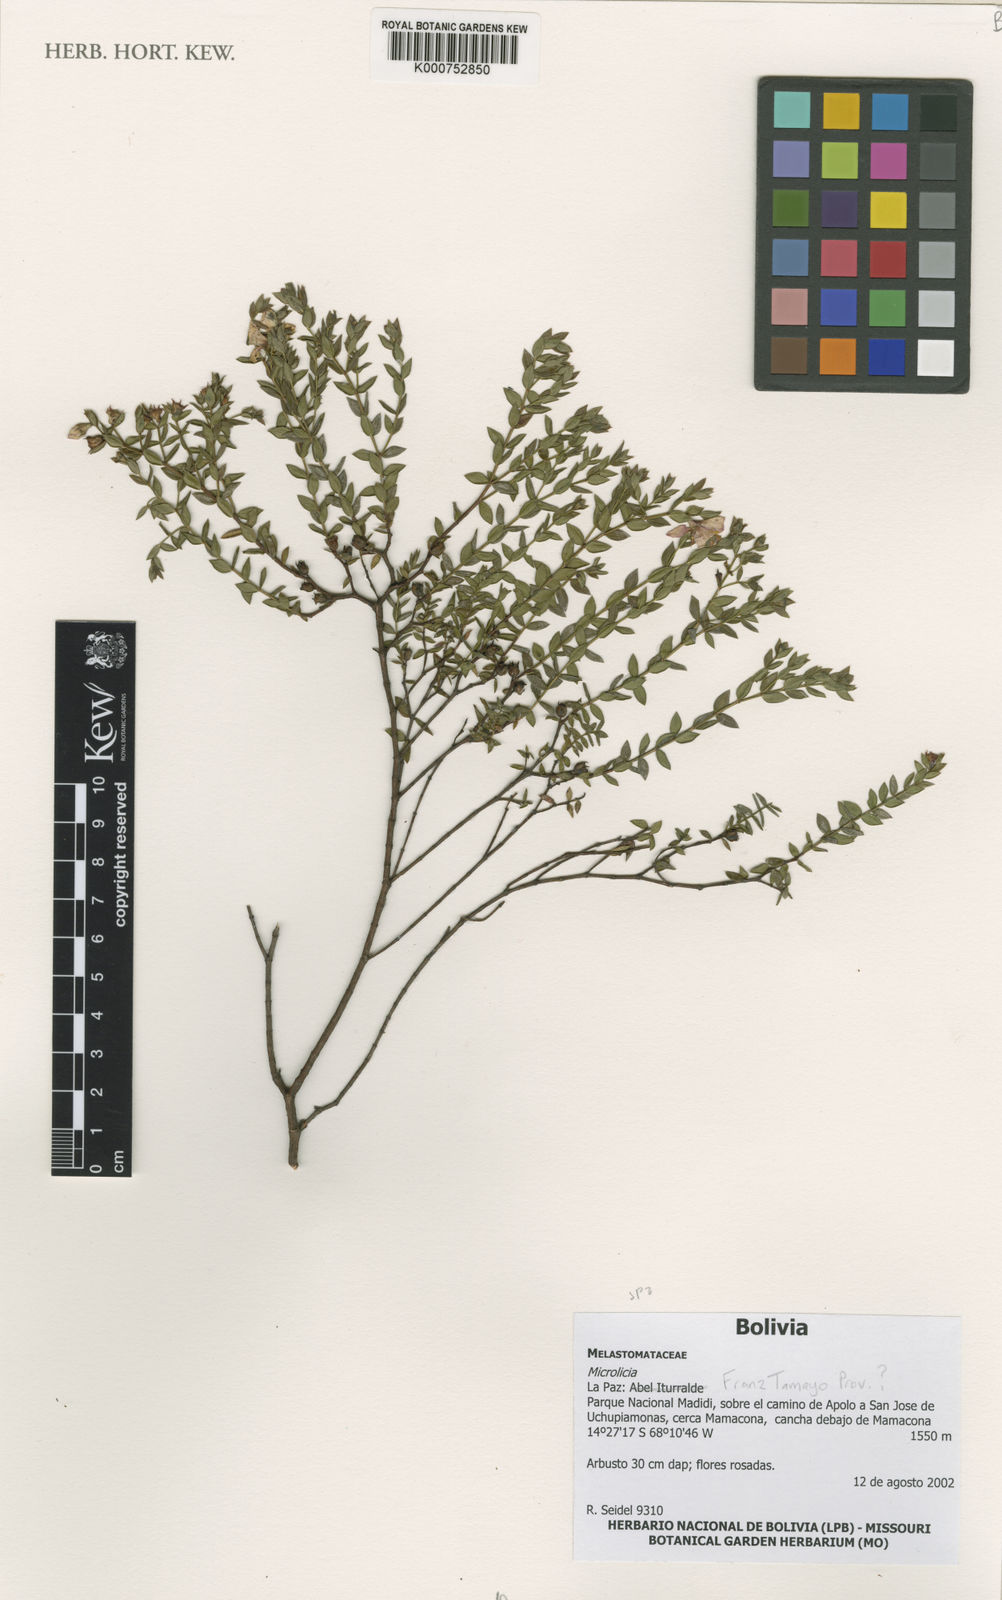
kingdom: Plantae
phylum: Tracheophyta
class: Magnoliopsida
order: Myrtales
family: Melastomataceae
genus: Microlicia
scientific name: Microlicia
